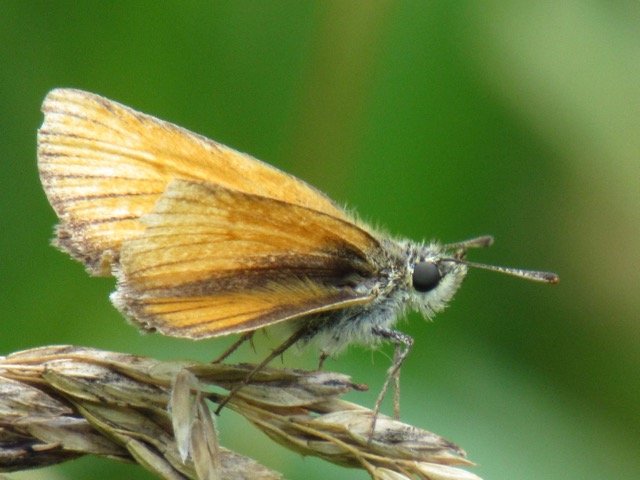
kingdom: Animalia
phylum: Arthropoda
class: Insecta
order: Lepidoptera
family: Hesperiidae
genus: Thymelicus
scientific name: Thymelicus lineola
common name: European Skipper
